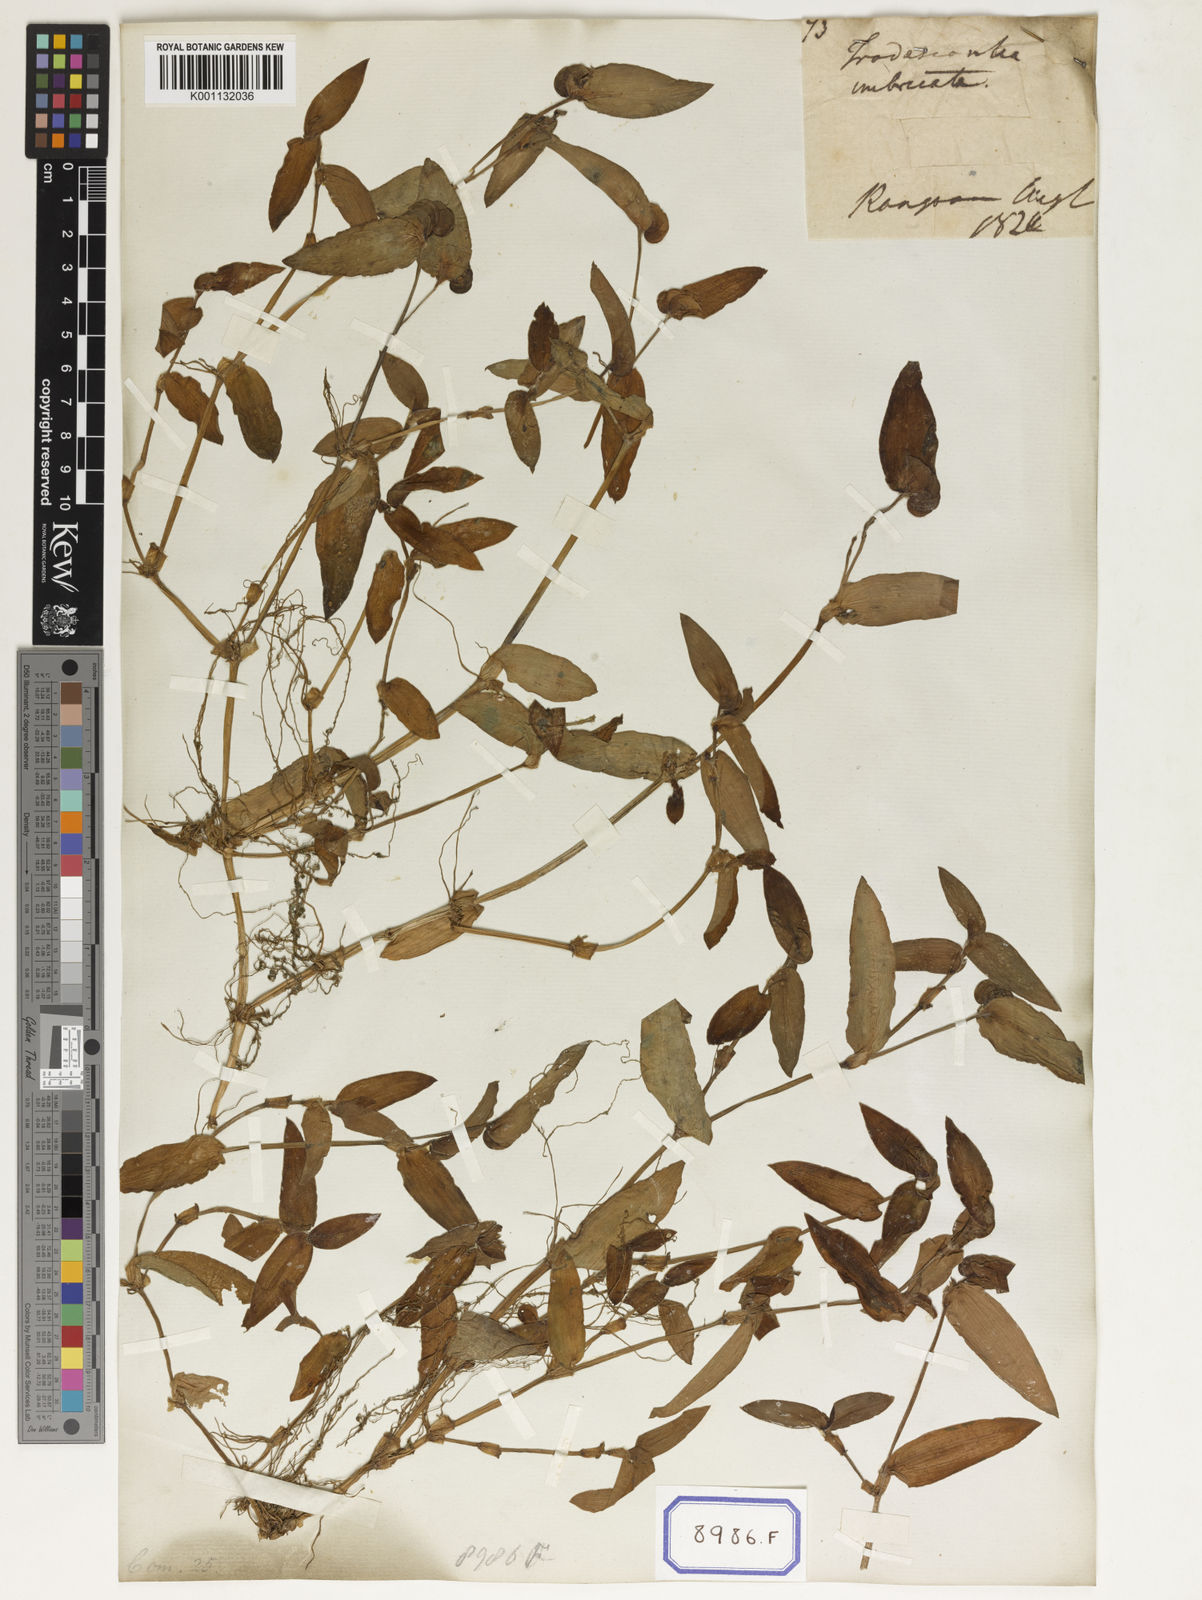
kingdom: Plantae
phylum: Tracheophyta
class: Liliopsida
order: Commelinales
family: Commelinaceae
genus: Cyanotis
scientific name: Cyanotis cristata
